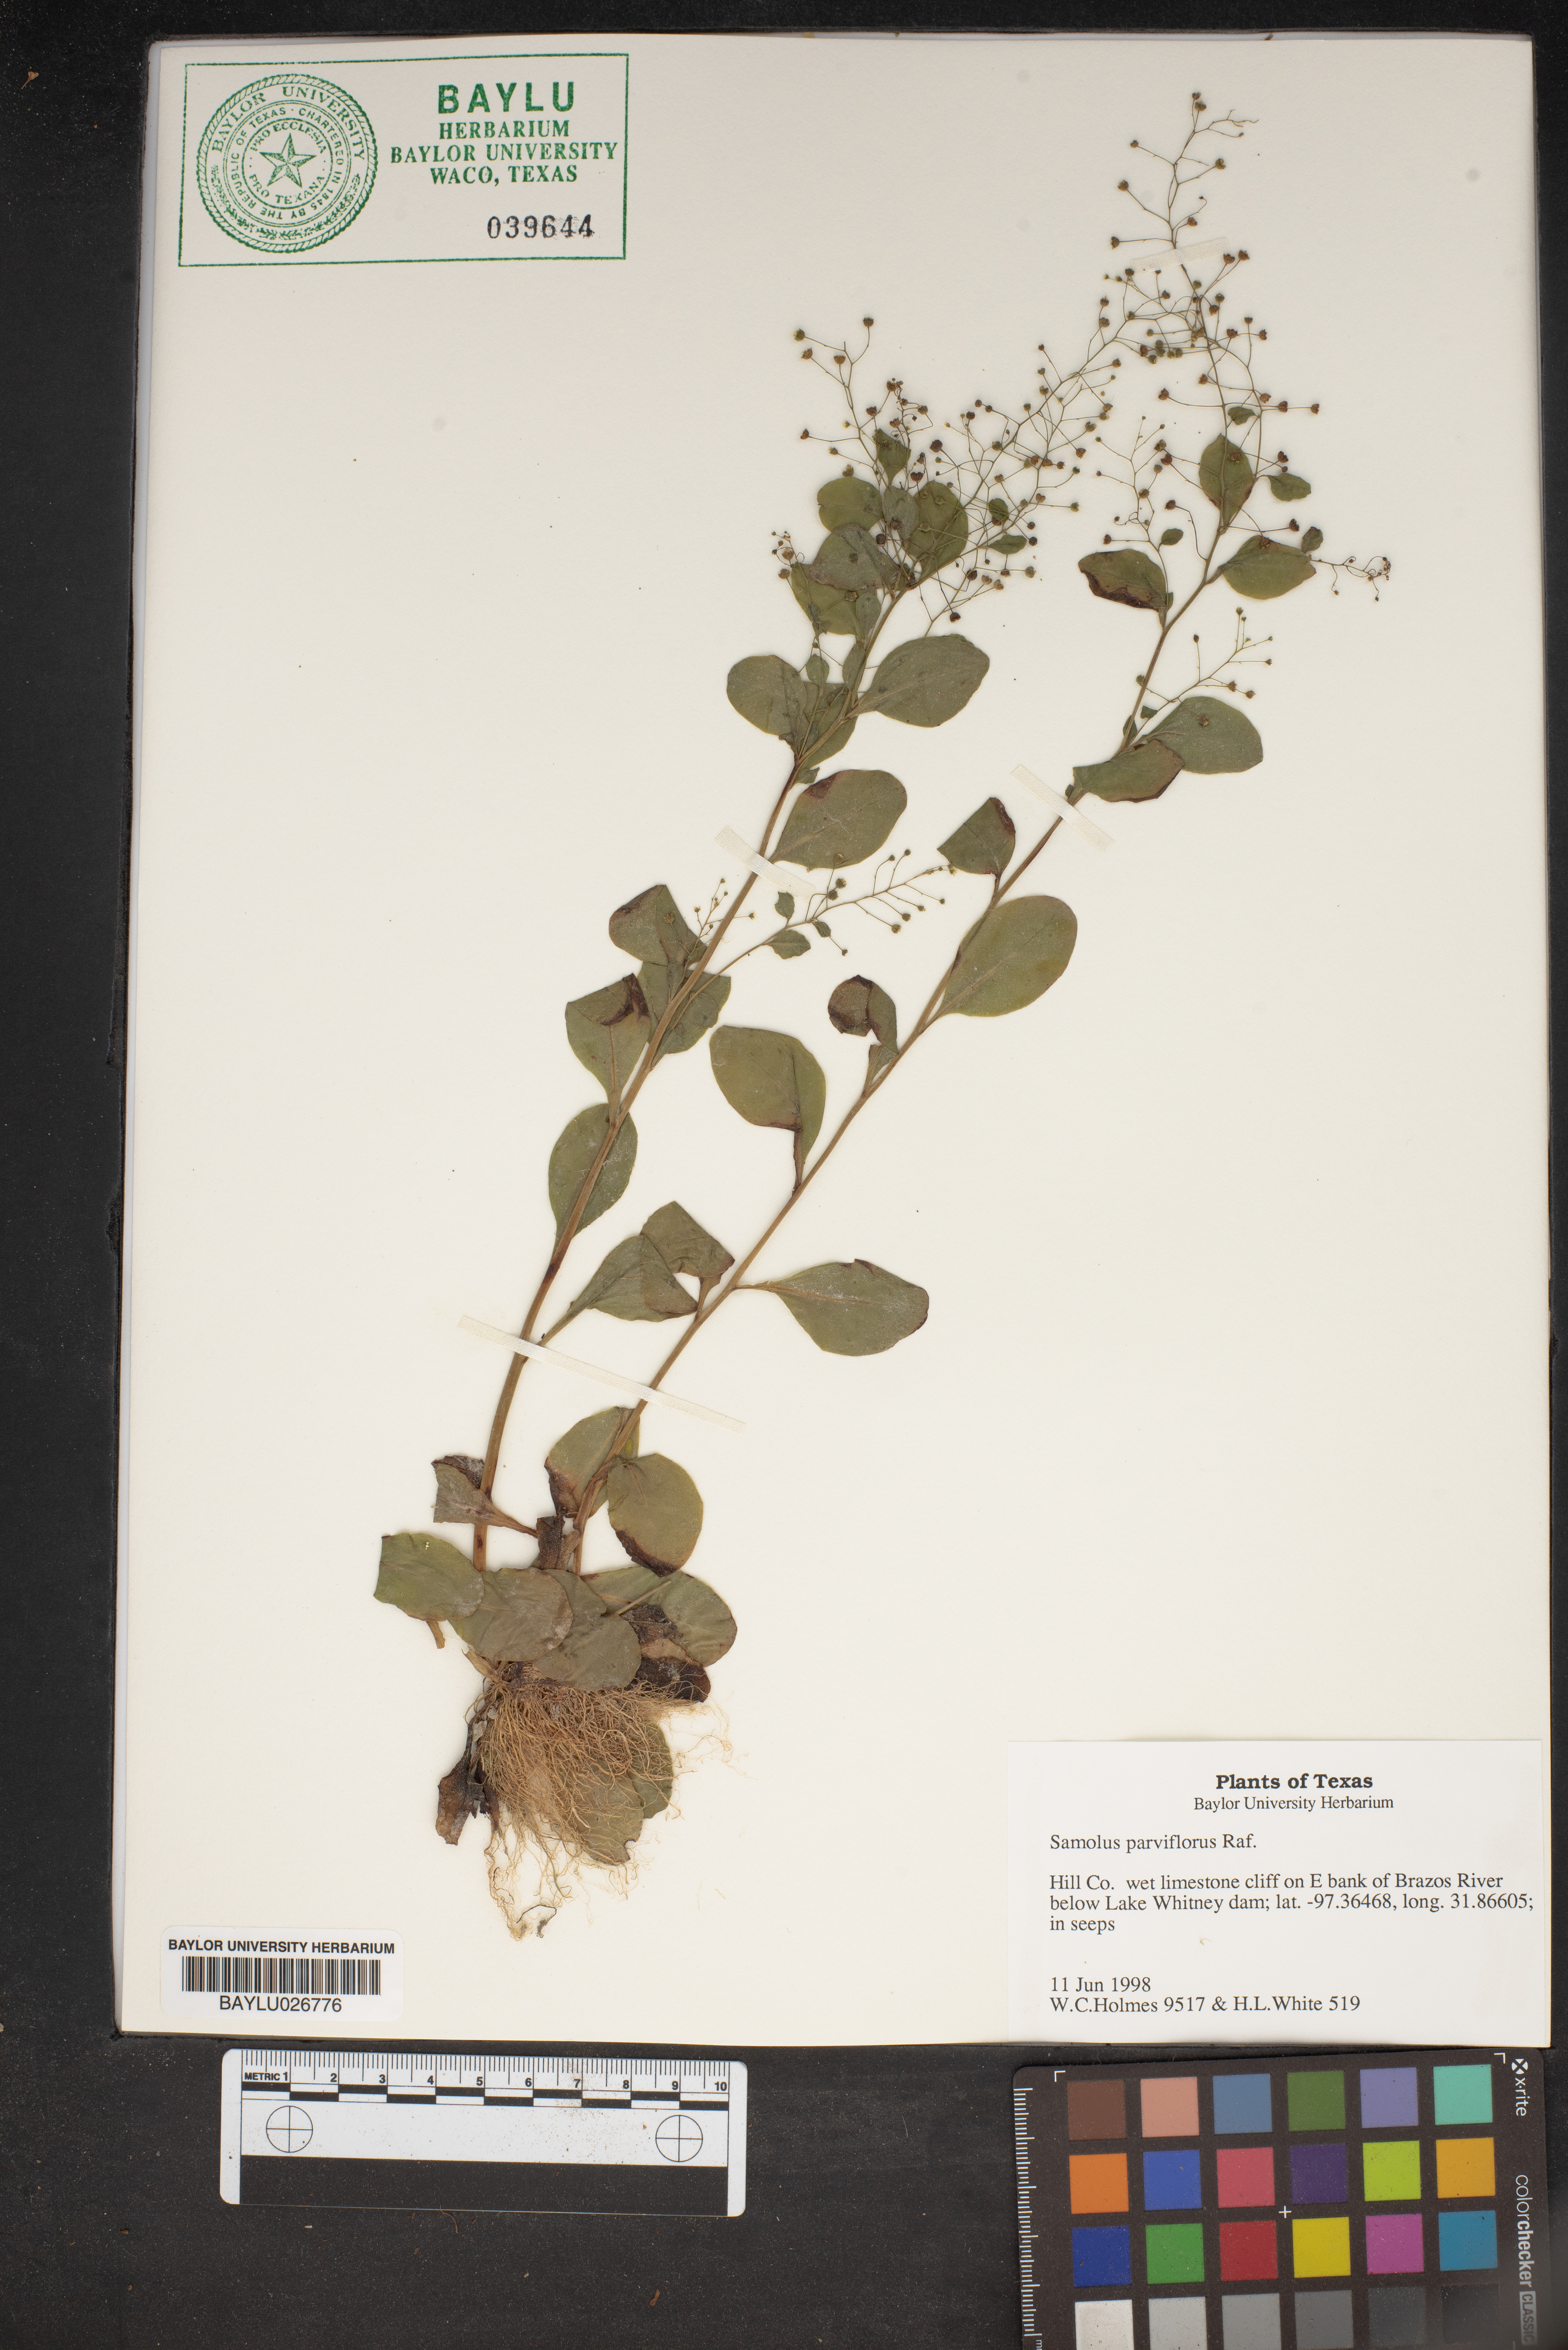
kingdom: Plantae
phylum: Tracheophyta
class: Magnoliopsida
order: Ericales
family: Primulaceae
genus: Samolus
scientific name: Samolus parviflorus
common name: False water pimpernel
